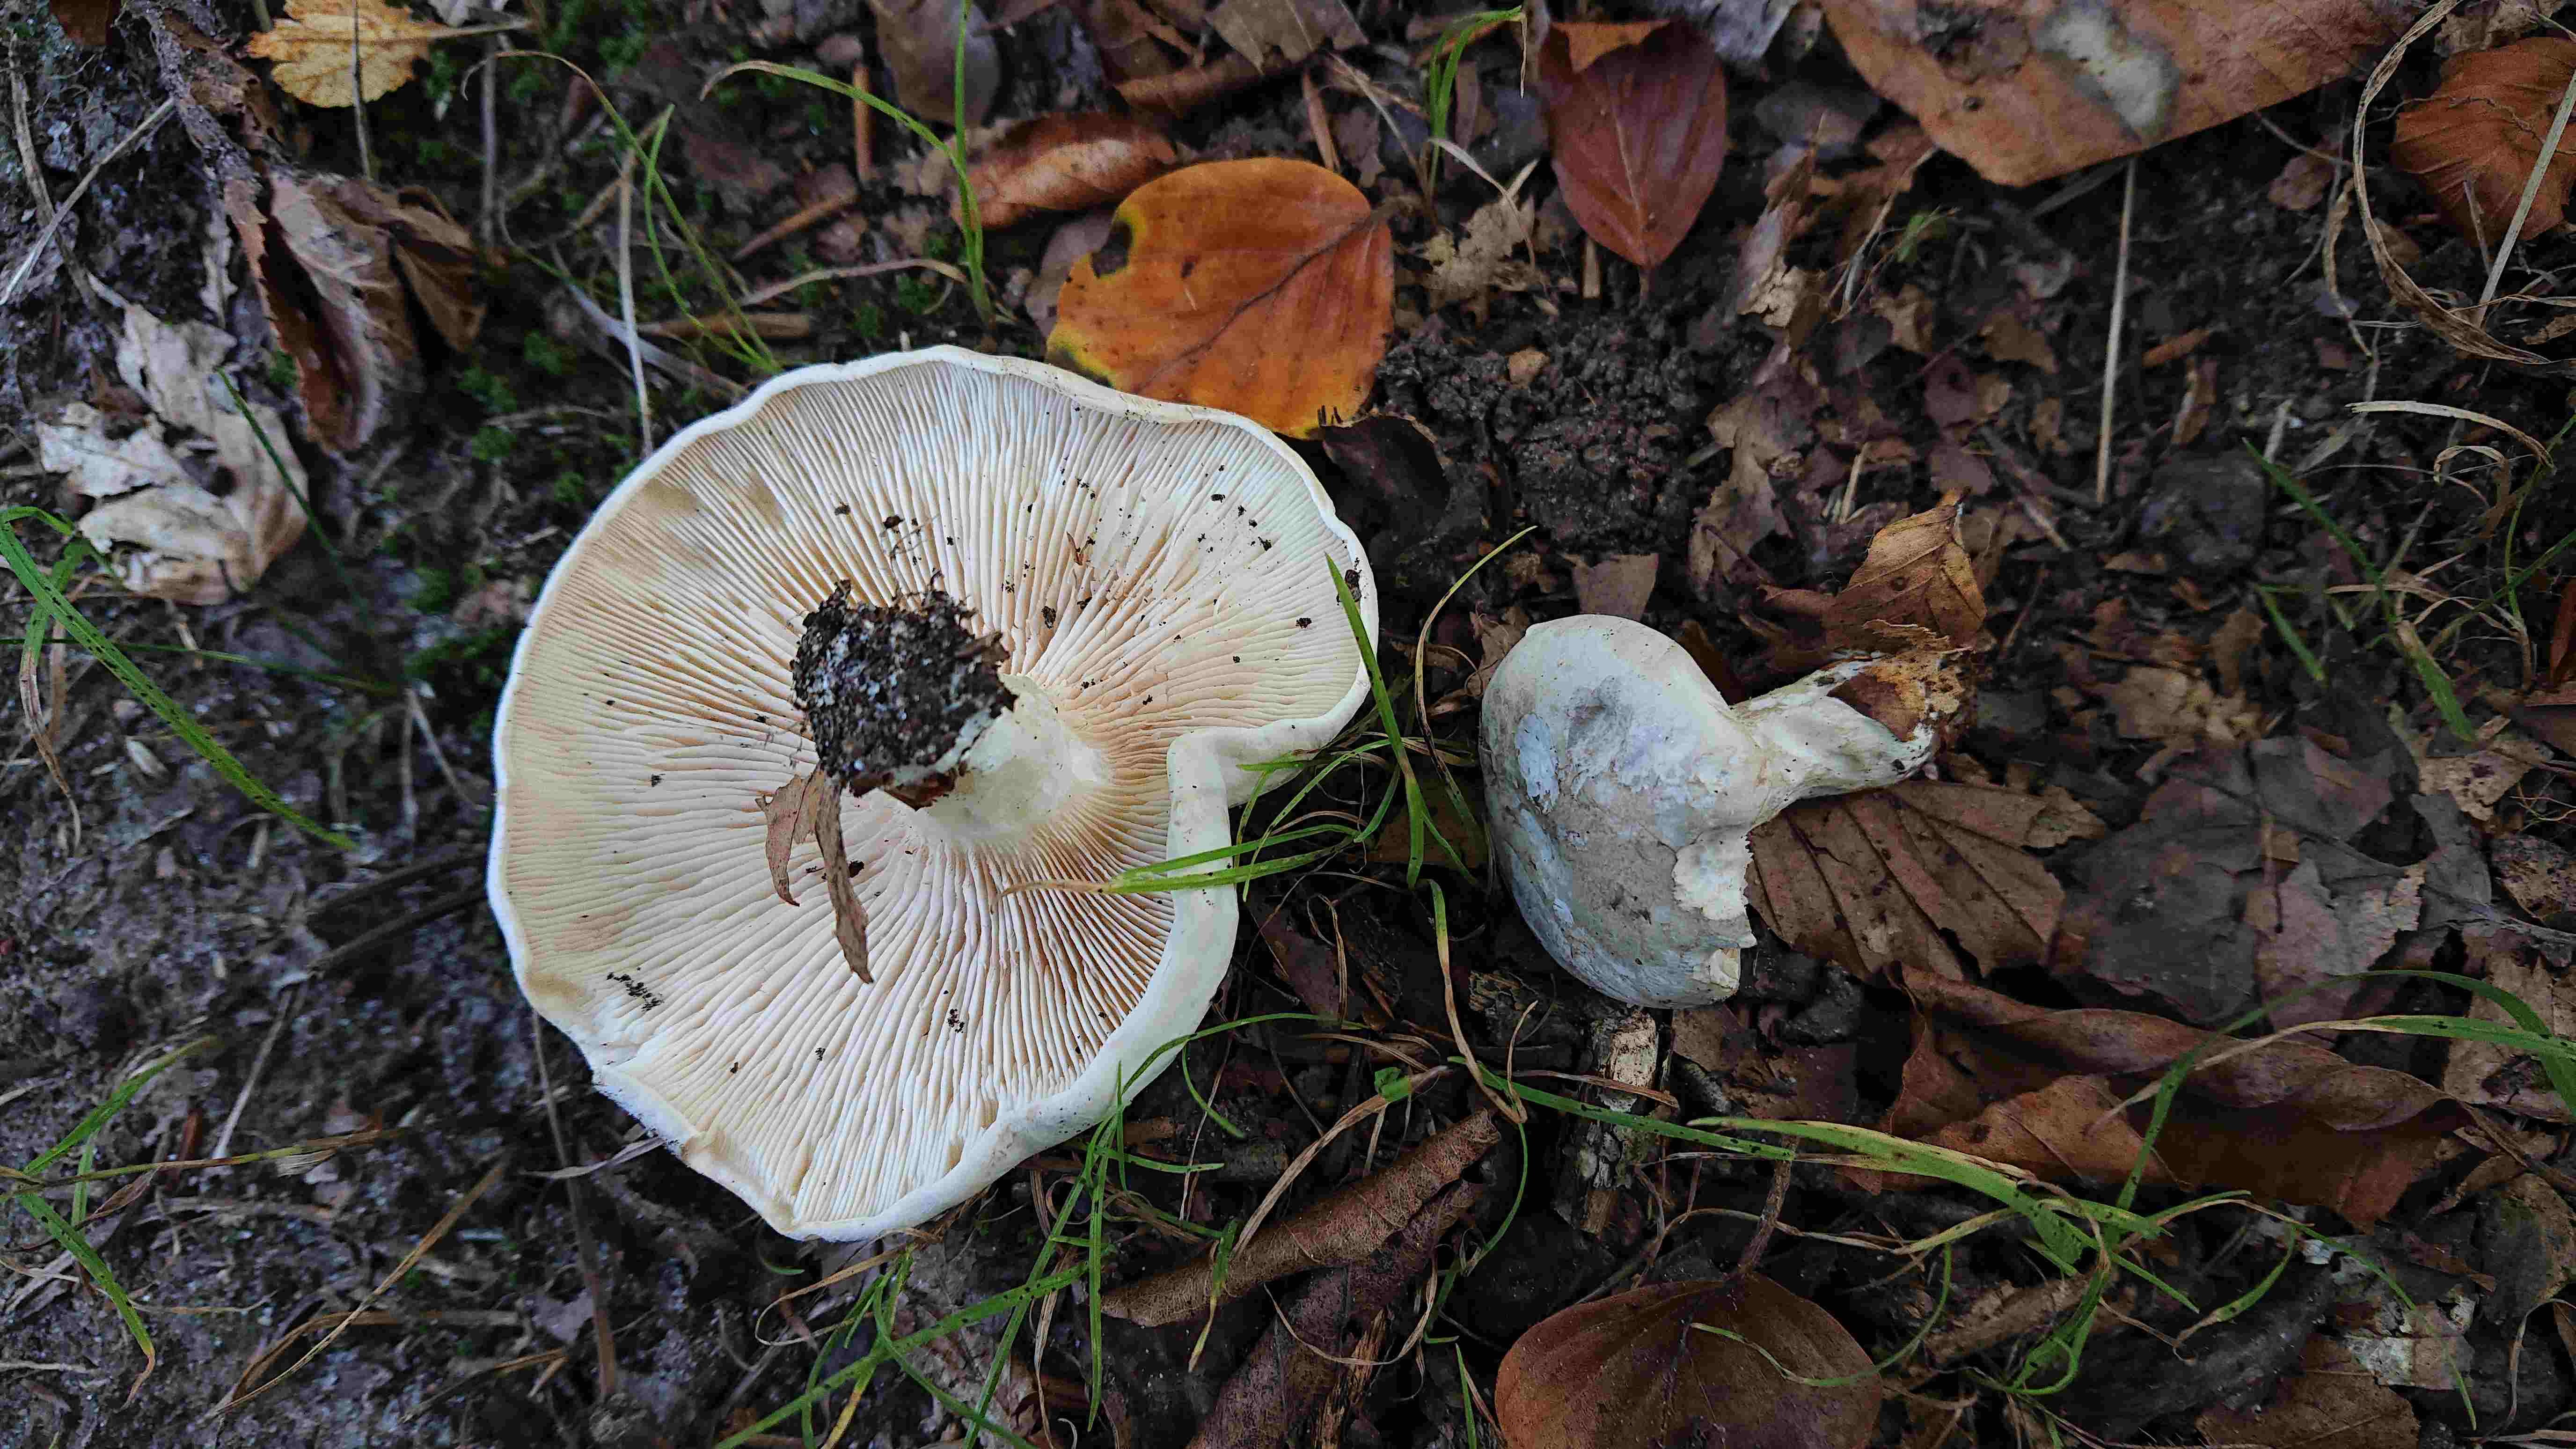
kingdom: Fungi
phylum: Basidiomycota
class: Agaricomycetes
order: Agaricales
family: Entolomataceae
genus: Clitopilus
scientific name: Clitopilus prunulus
